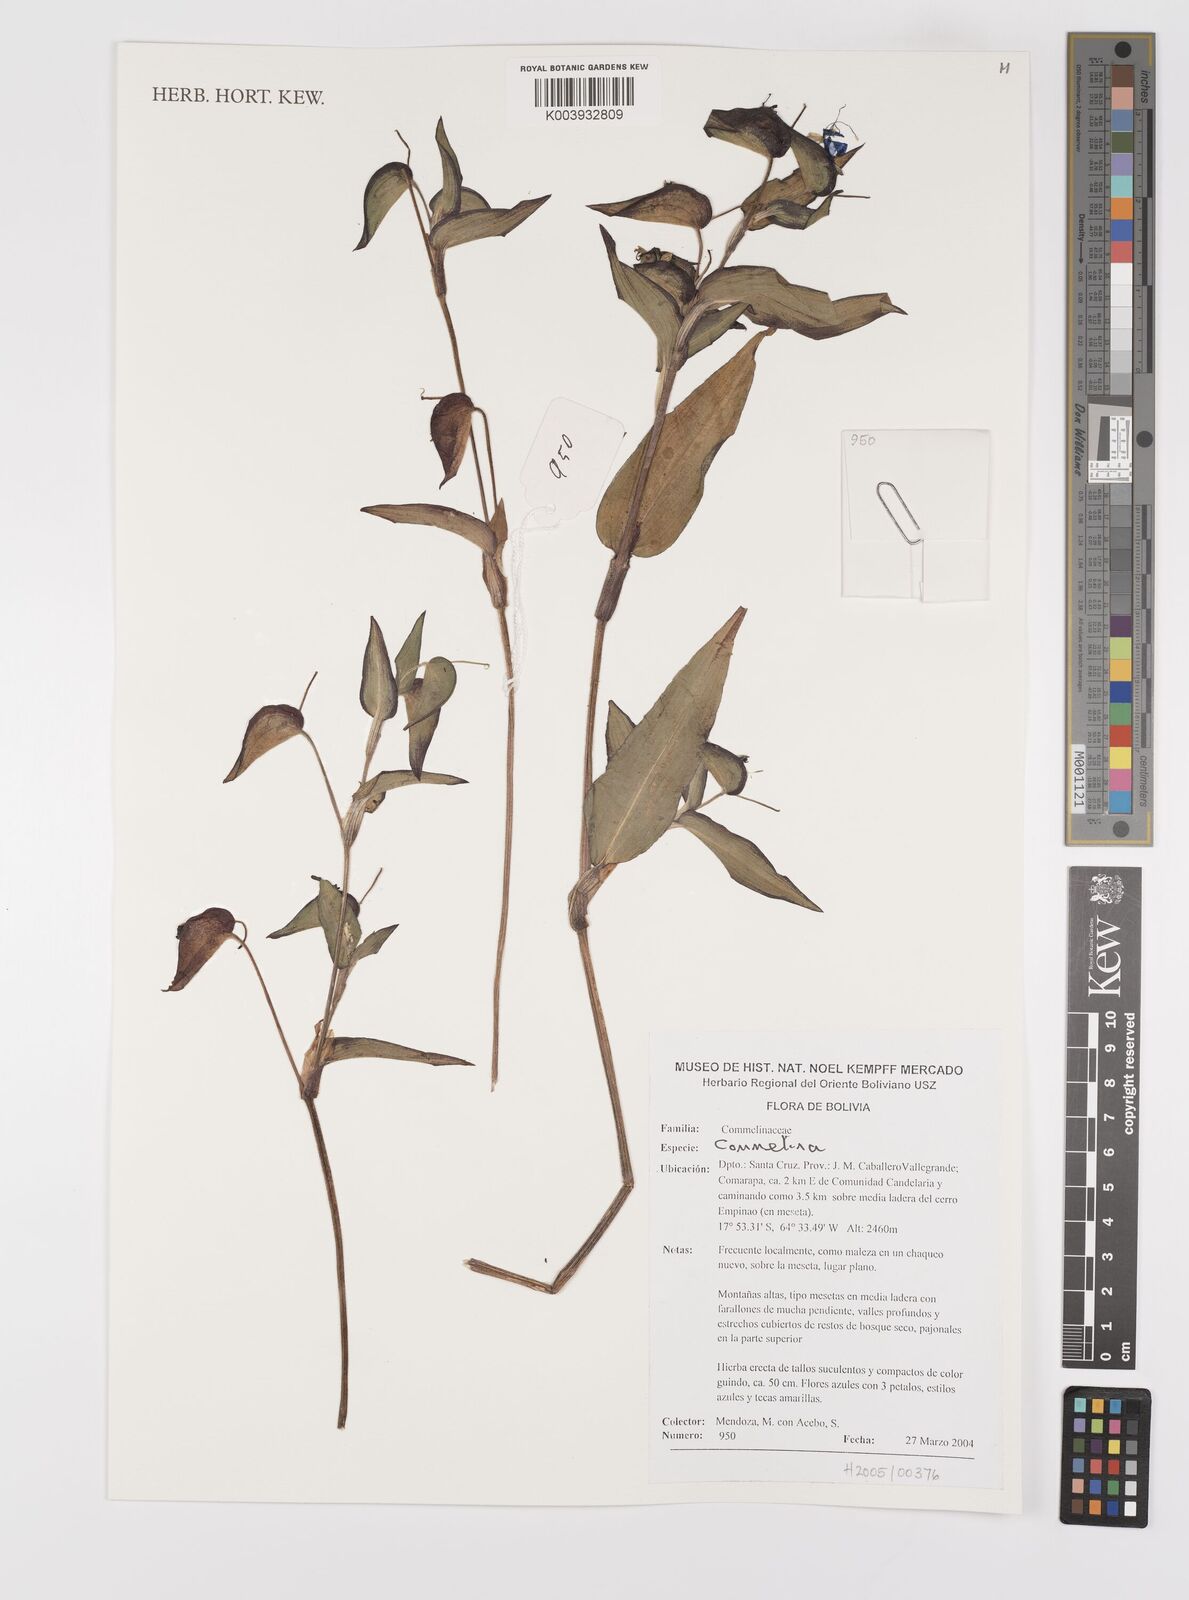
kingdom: Plantae
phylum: Tracheophyta
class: Liliopsida
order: Commelinales
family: Commelinaceae
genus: Commelina
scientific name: Commelina
